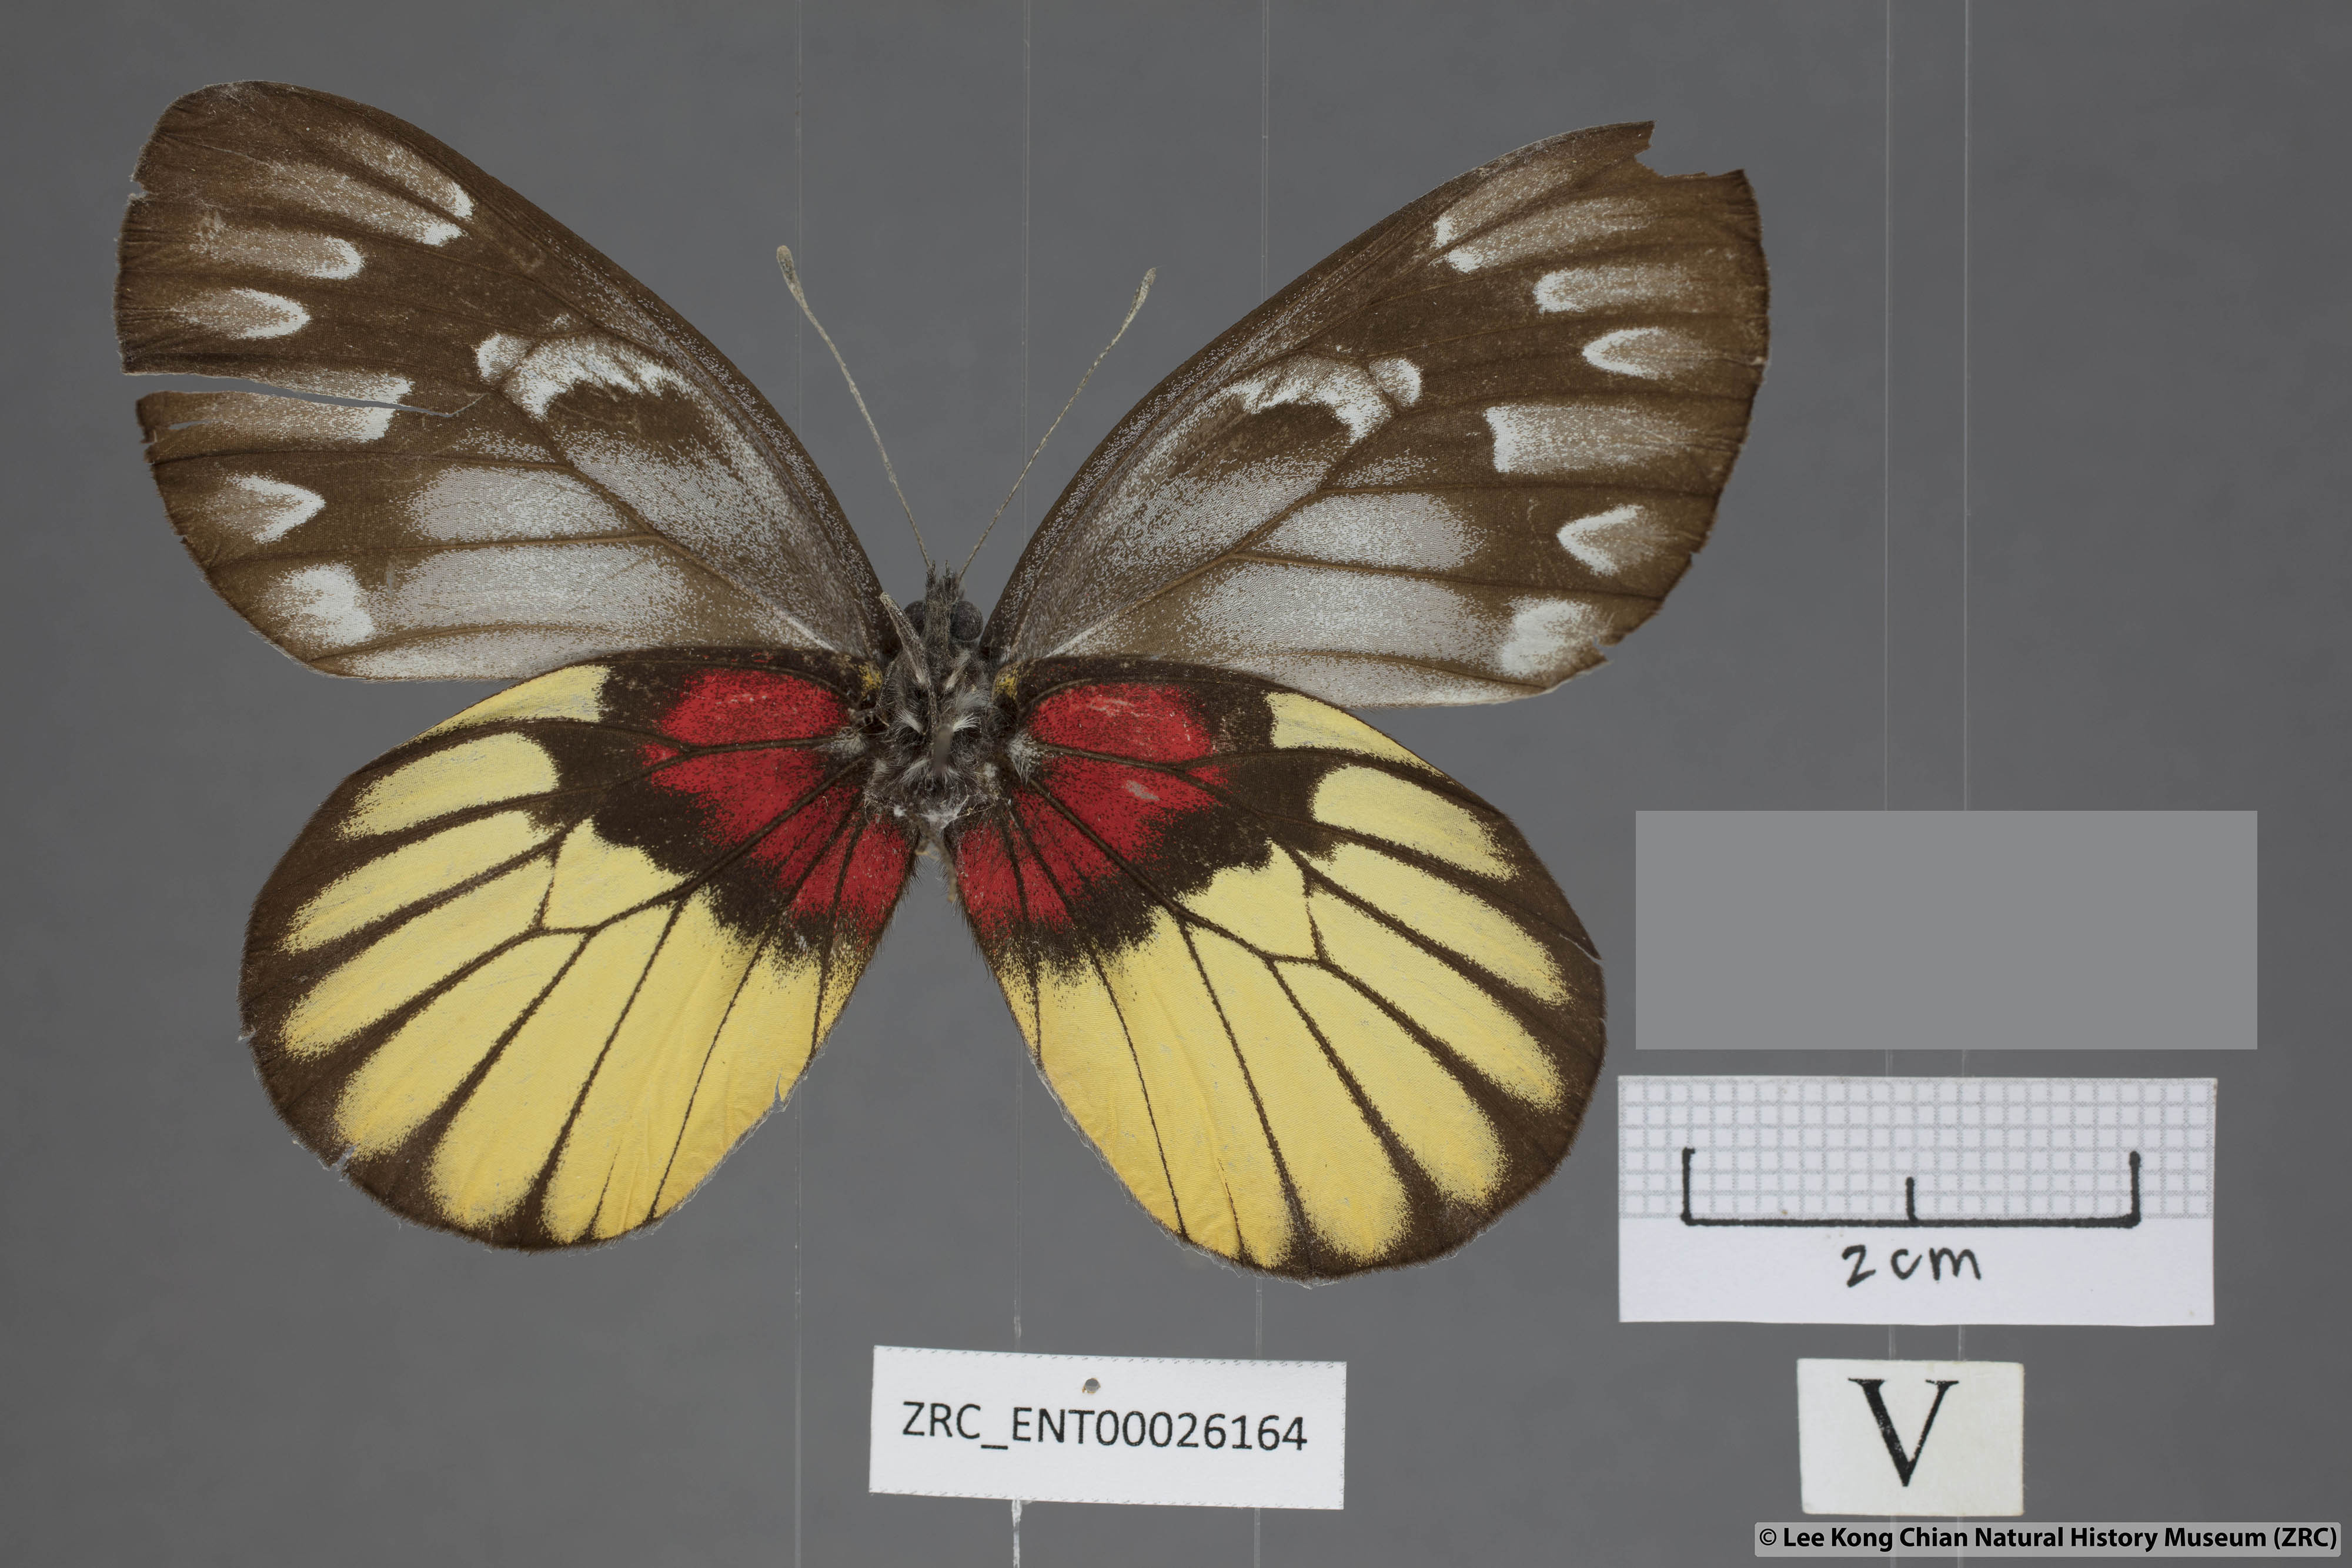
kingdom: Animalia
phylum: Arthropoda
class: Insecta
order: Lepidoptera
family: Pieridae
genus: Delias
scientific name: Delias acalis
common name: Red-breast jezebel
